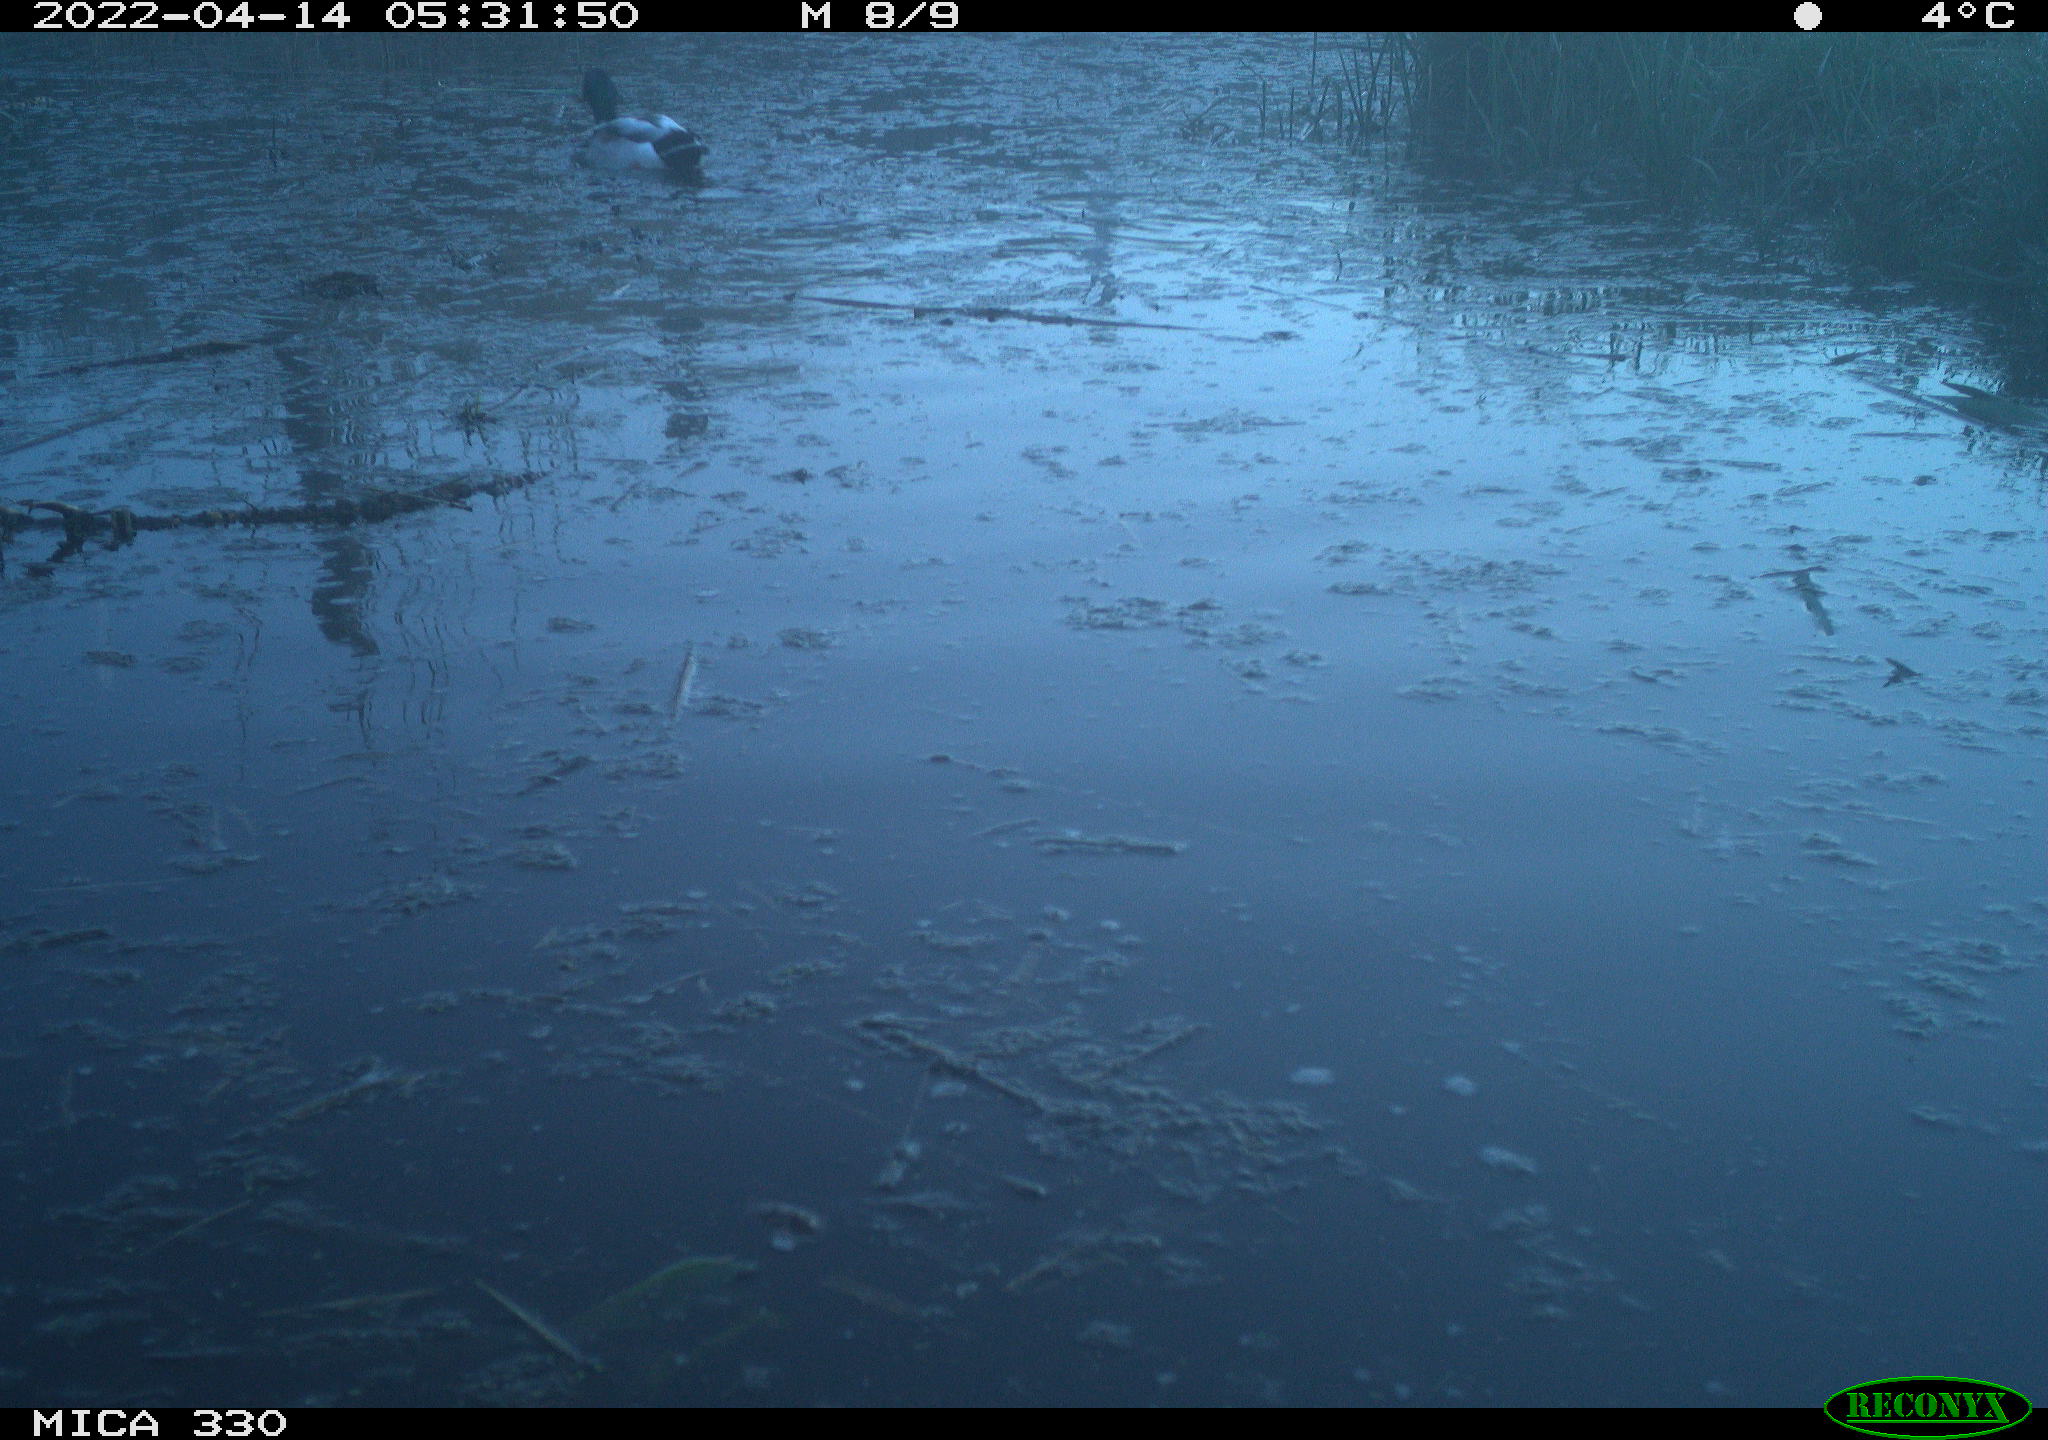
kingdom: Animalia
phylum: Chordata
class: Aves
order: Anseriformes
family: Anatidae
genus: Anas
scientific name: Anas platyrhynchos
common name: Mallard
